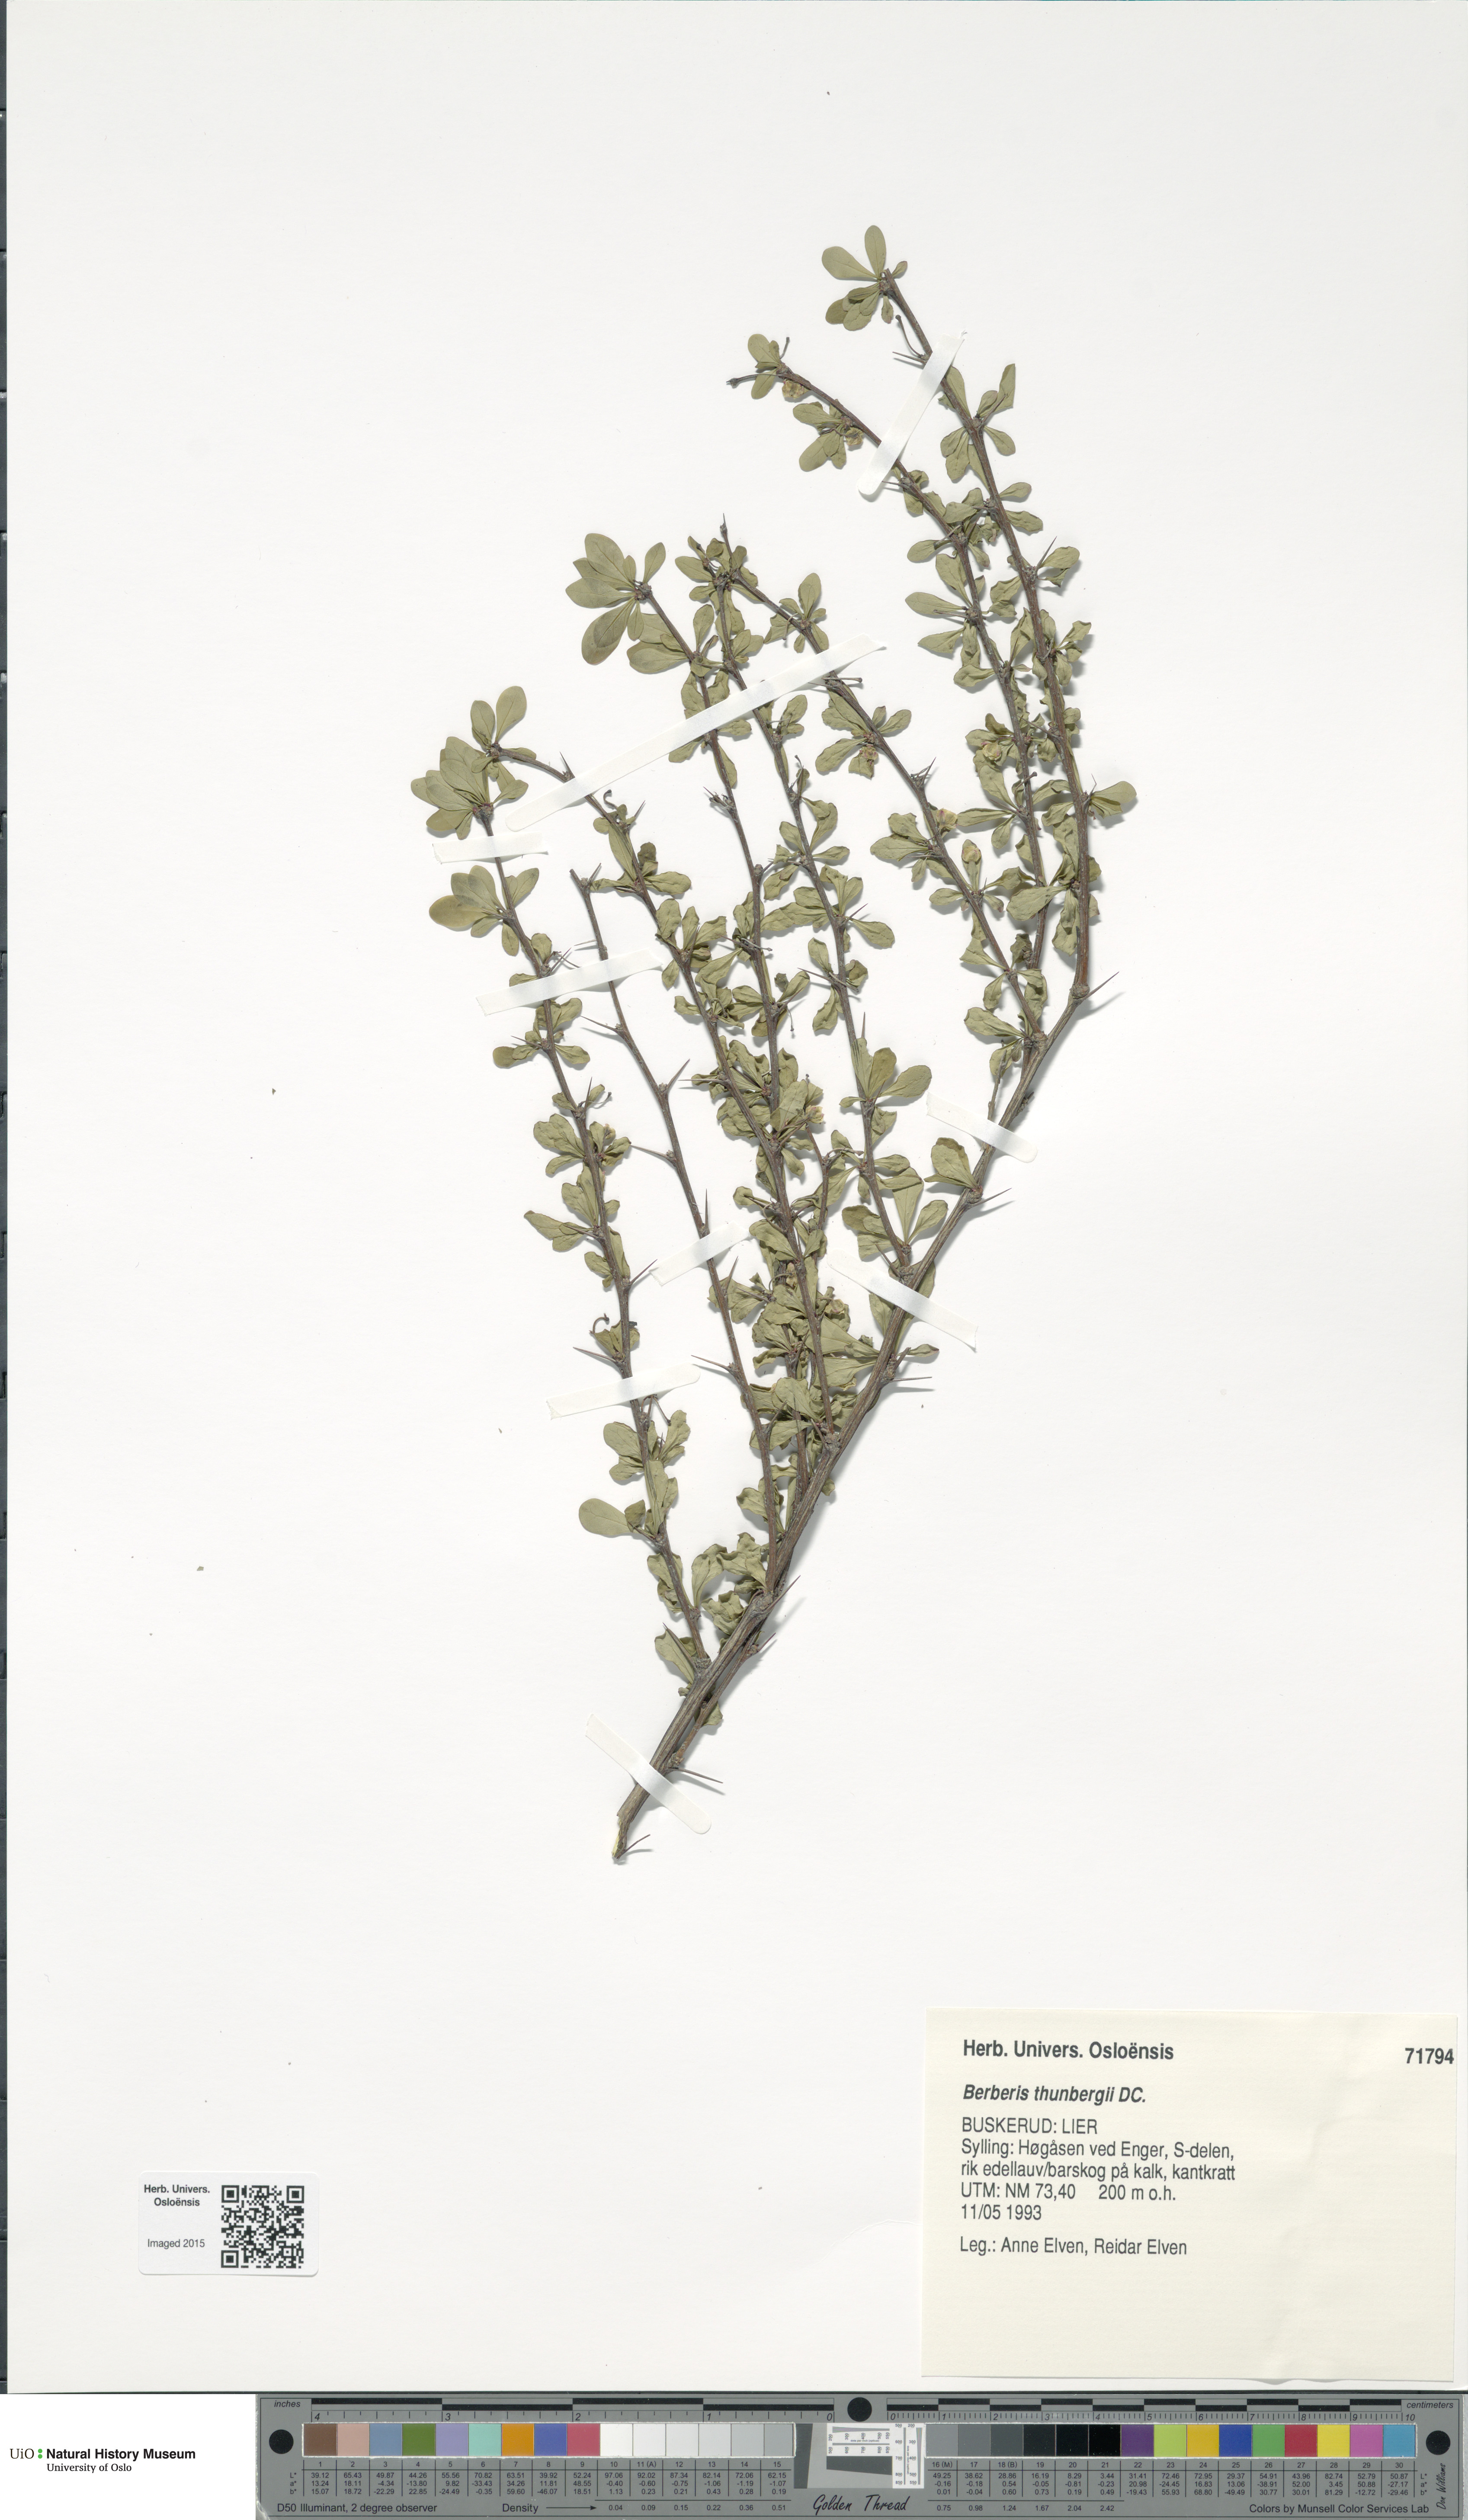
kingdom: Plantae
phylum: Tracheophyta
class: Magnoliopsida
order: Ranunculales
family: Berberidaceae
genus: Berberis
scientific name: Berberis thunbergii
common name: Japanese barberry
